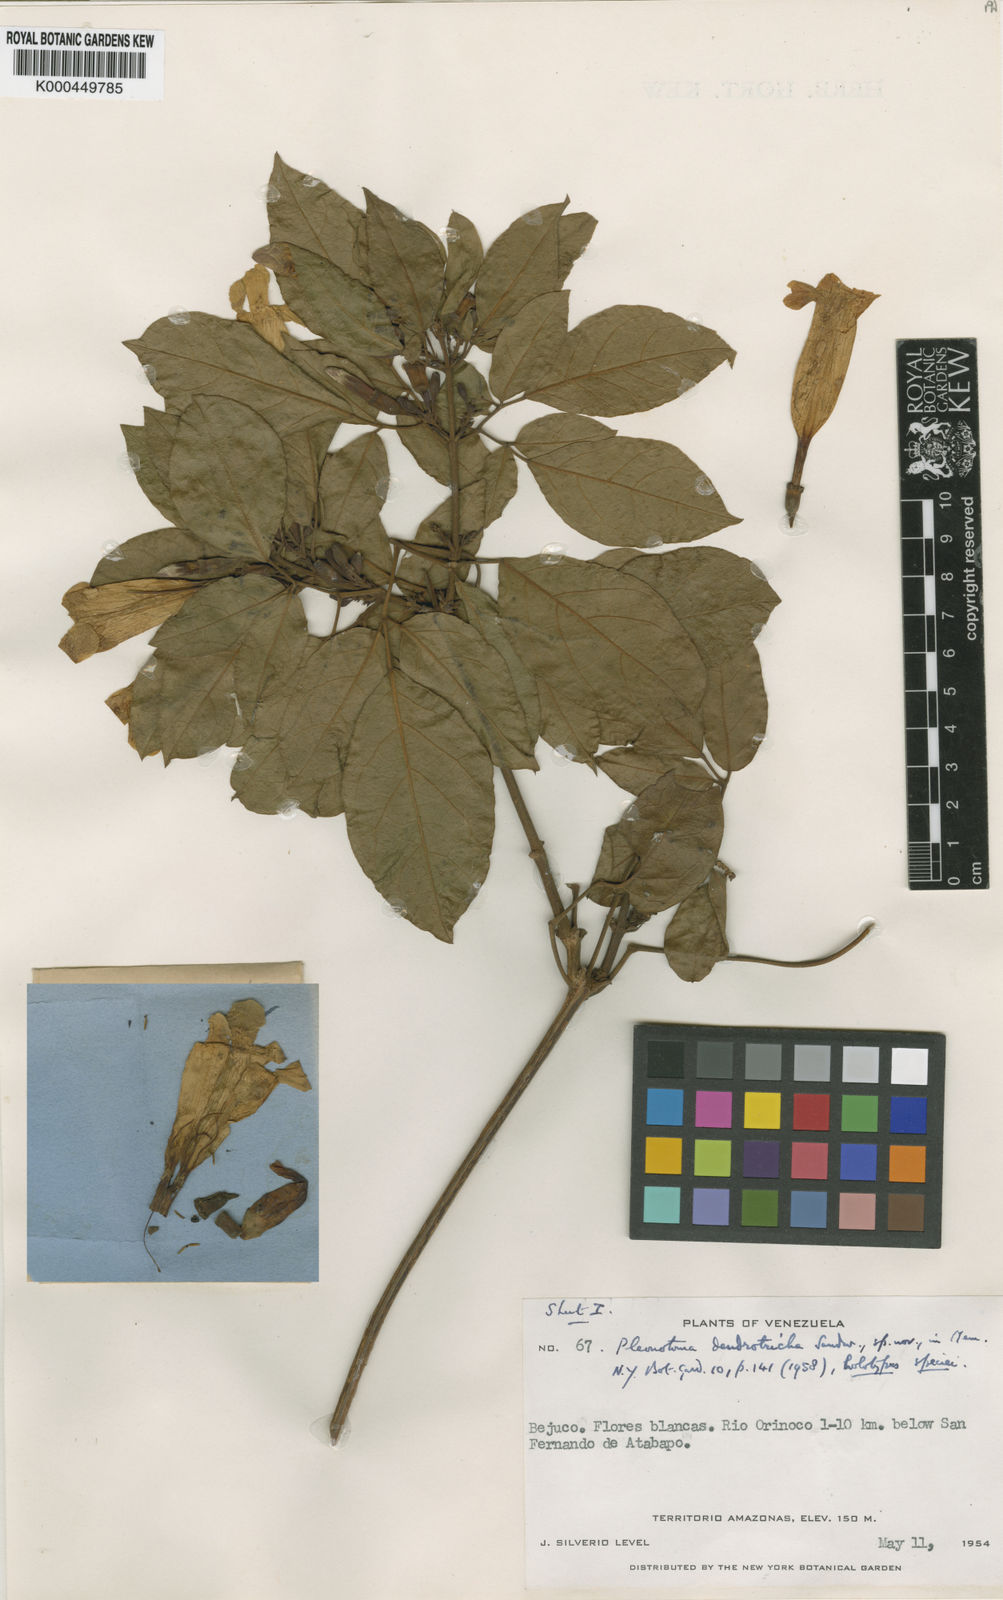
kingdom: Plantae
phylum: Tracheophyta
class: Magnoliopsida
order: Lamiales
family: Bignoniaceae
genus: Pleonotoma
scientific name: Pleonotoma dendrotricha
